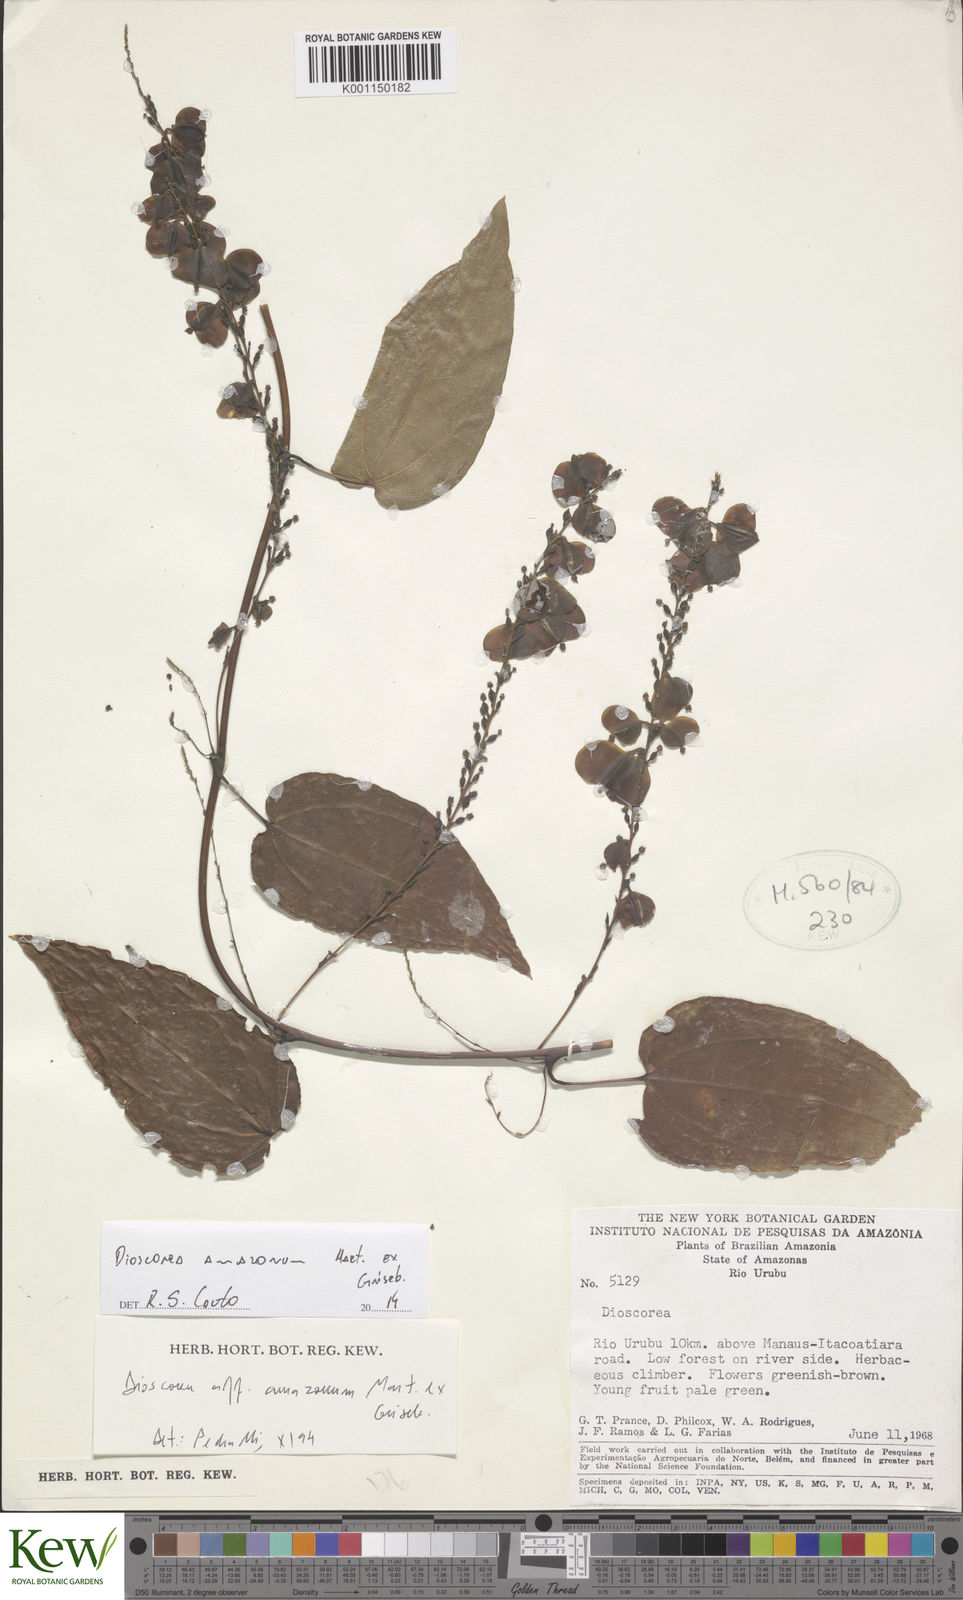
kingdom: Plantae
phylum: Tracheophyta
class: Liliopsida
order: Dioscoreales
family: Dioscoreaceae
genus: Dioscorea
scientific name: Dioscorea amazonum
